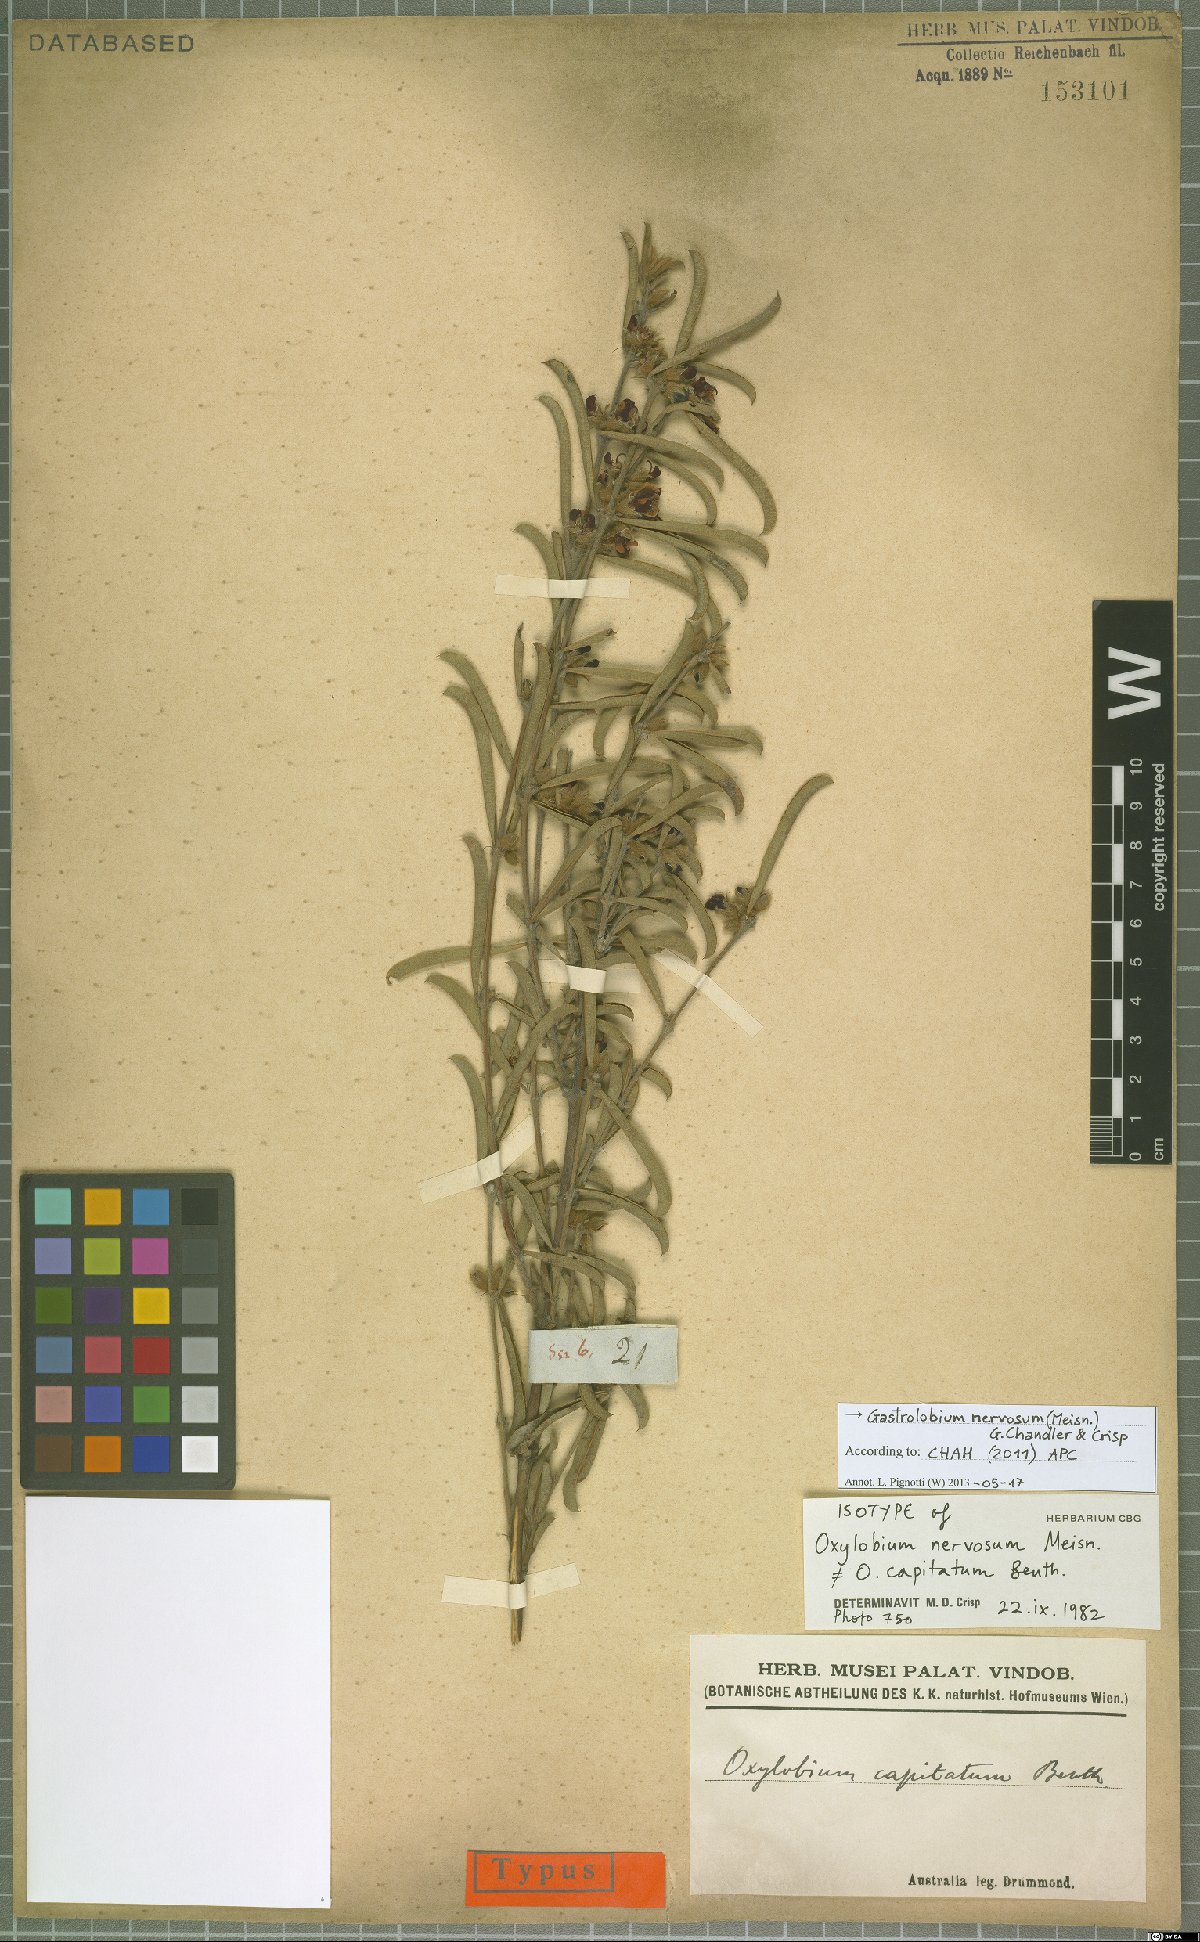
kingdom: Plantae
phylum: Tracheophyta
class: Magnoliopsida
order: Fabales
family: Fabaceae
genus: Gastrolobium
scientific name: Gastrolobium nervosum
